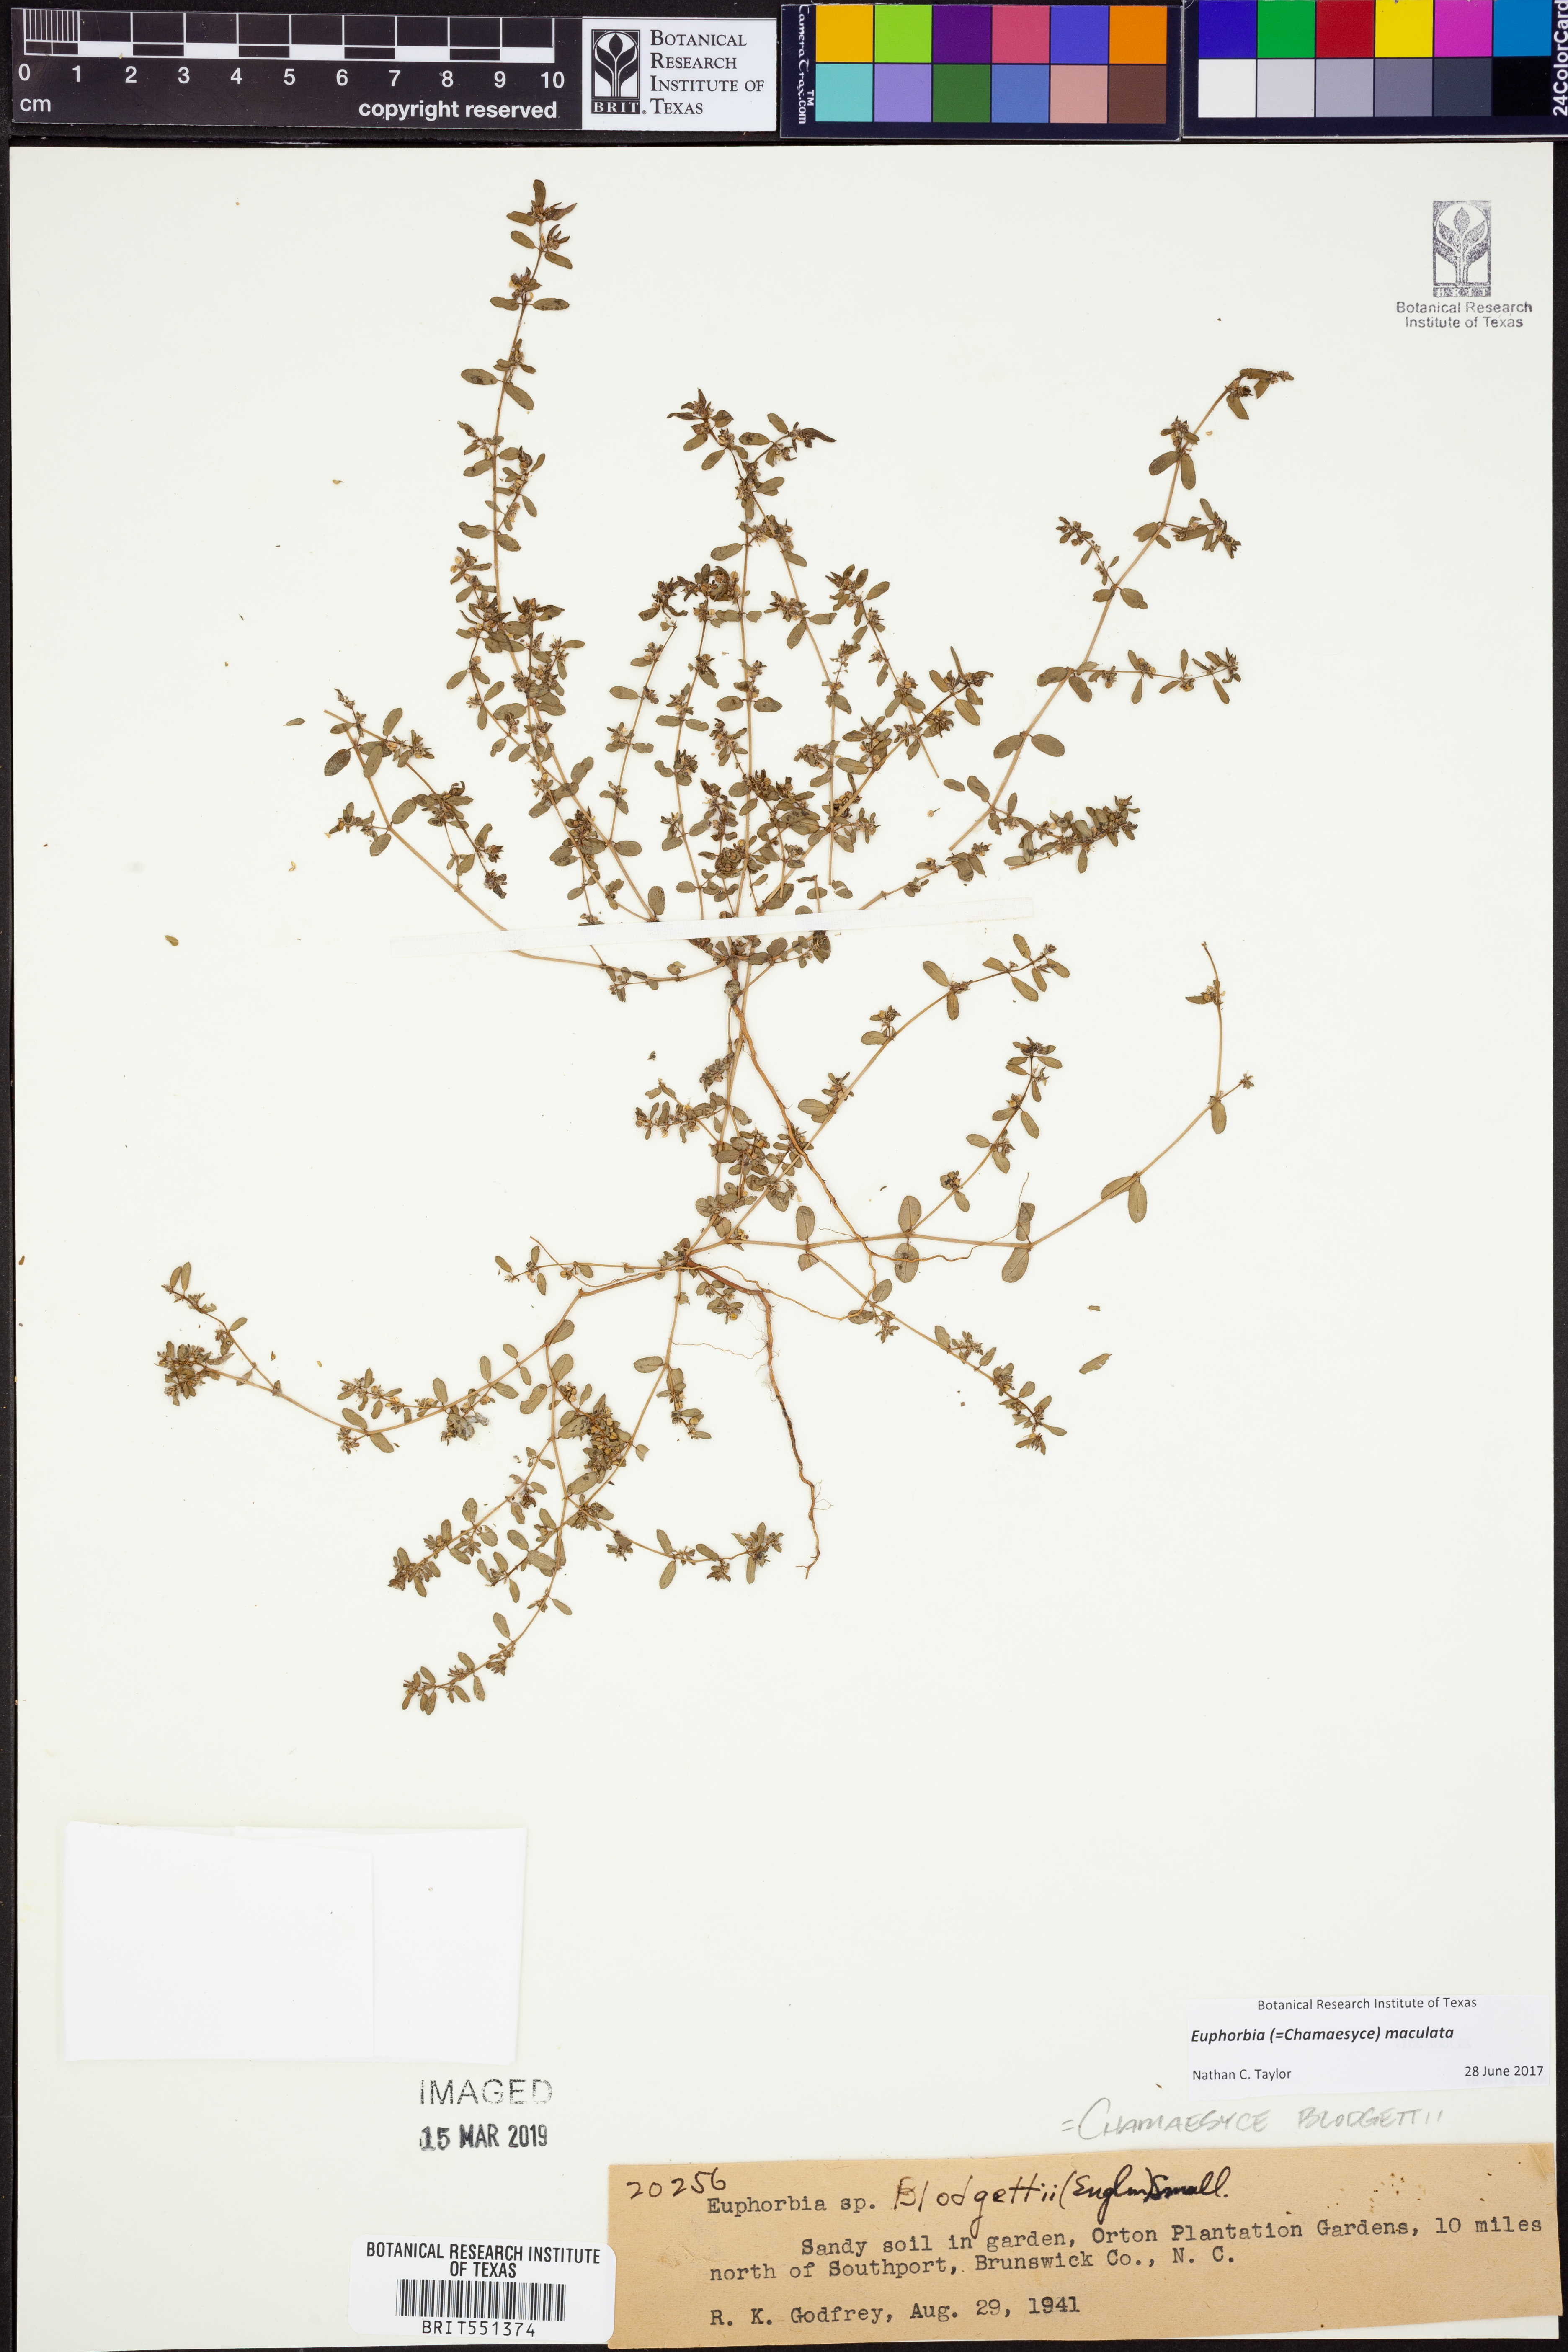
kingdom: Plantae
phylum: Tracheophyta
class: Magnoliopsida
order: Malpighiales
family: Euphorbiaceae
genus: Euphorbia
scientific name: Euphorbia maculata
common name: Spotted spurge
